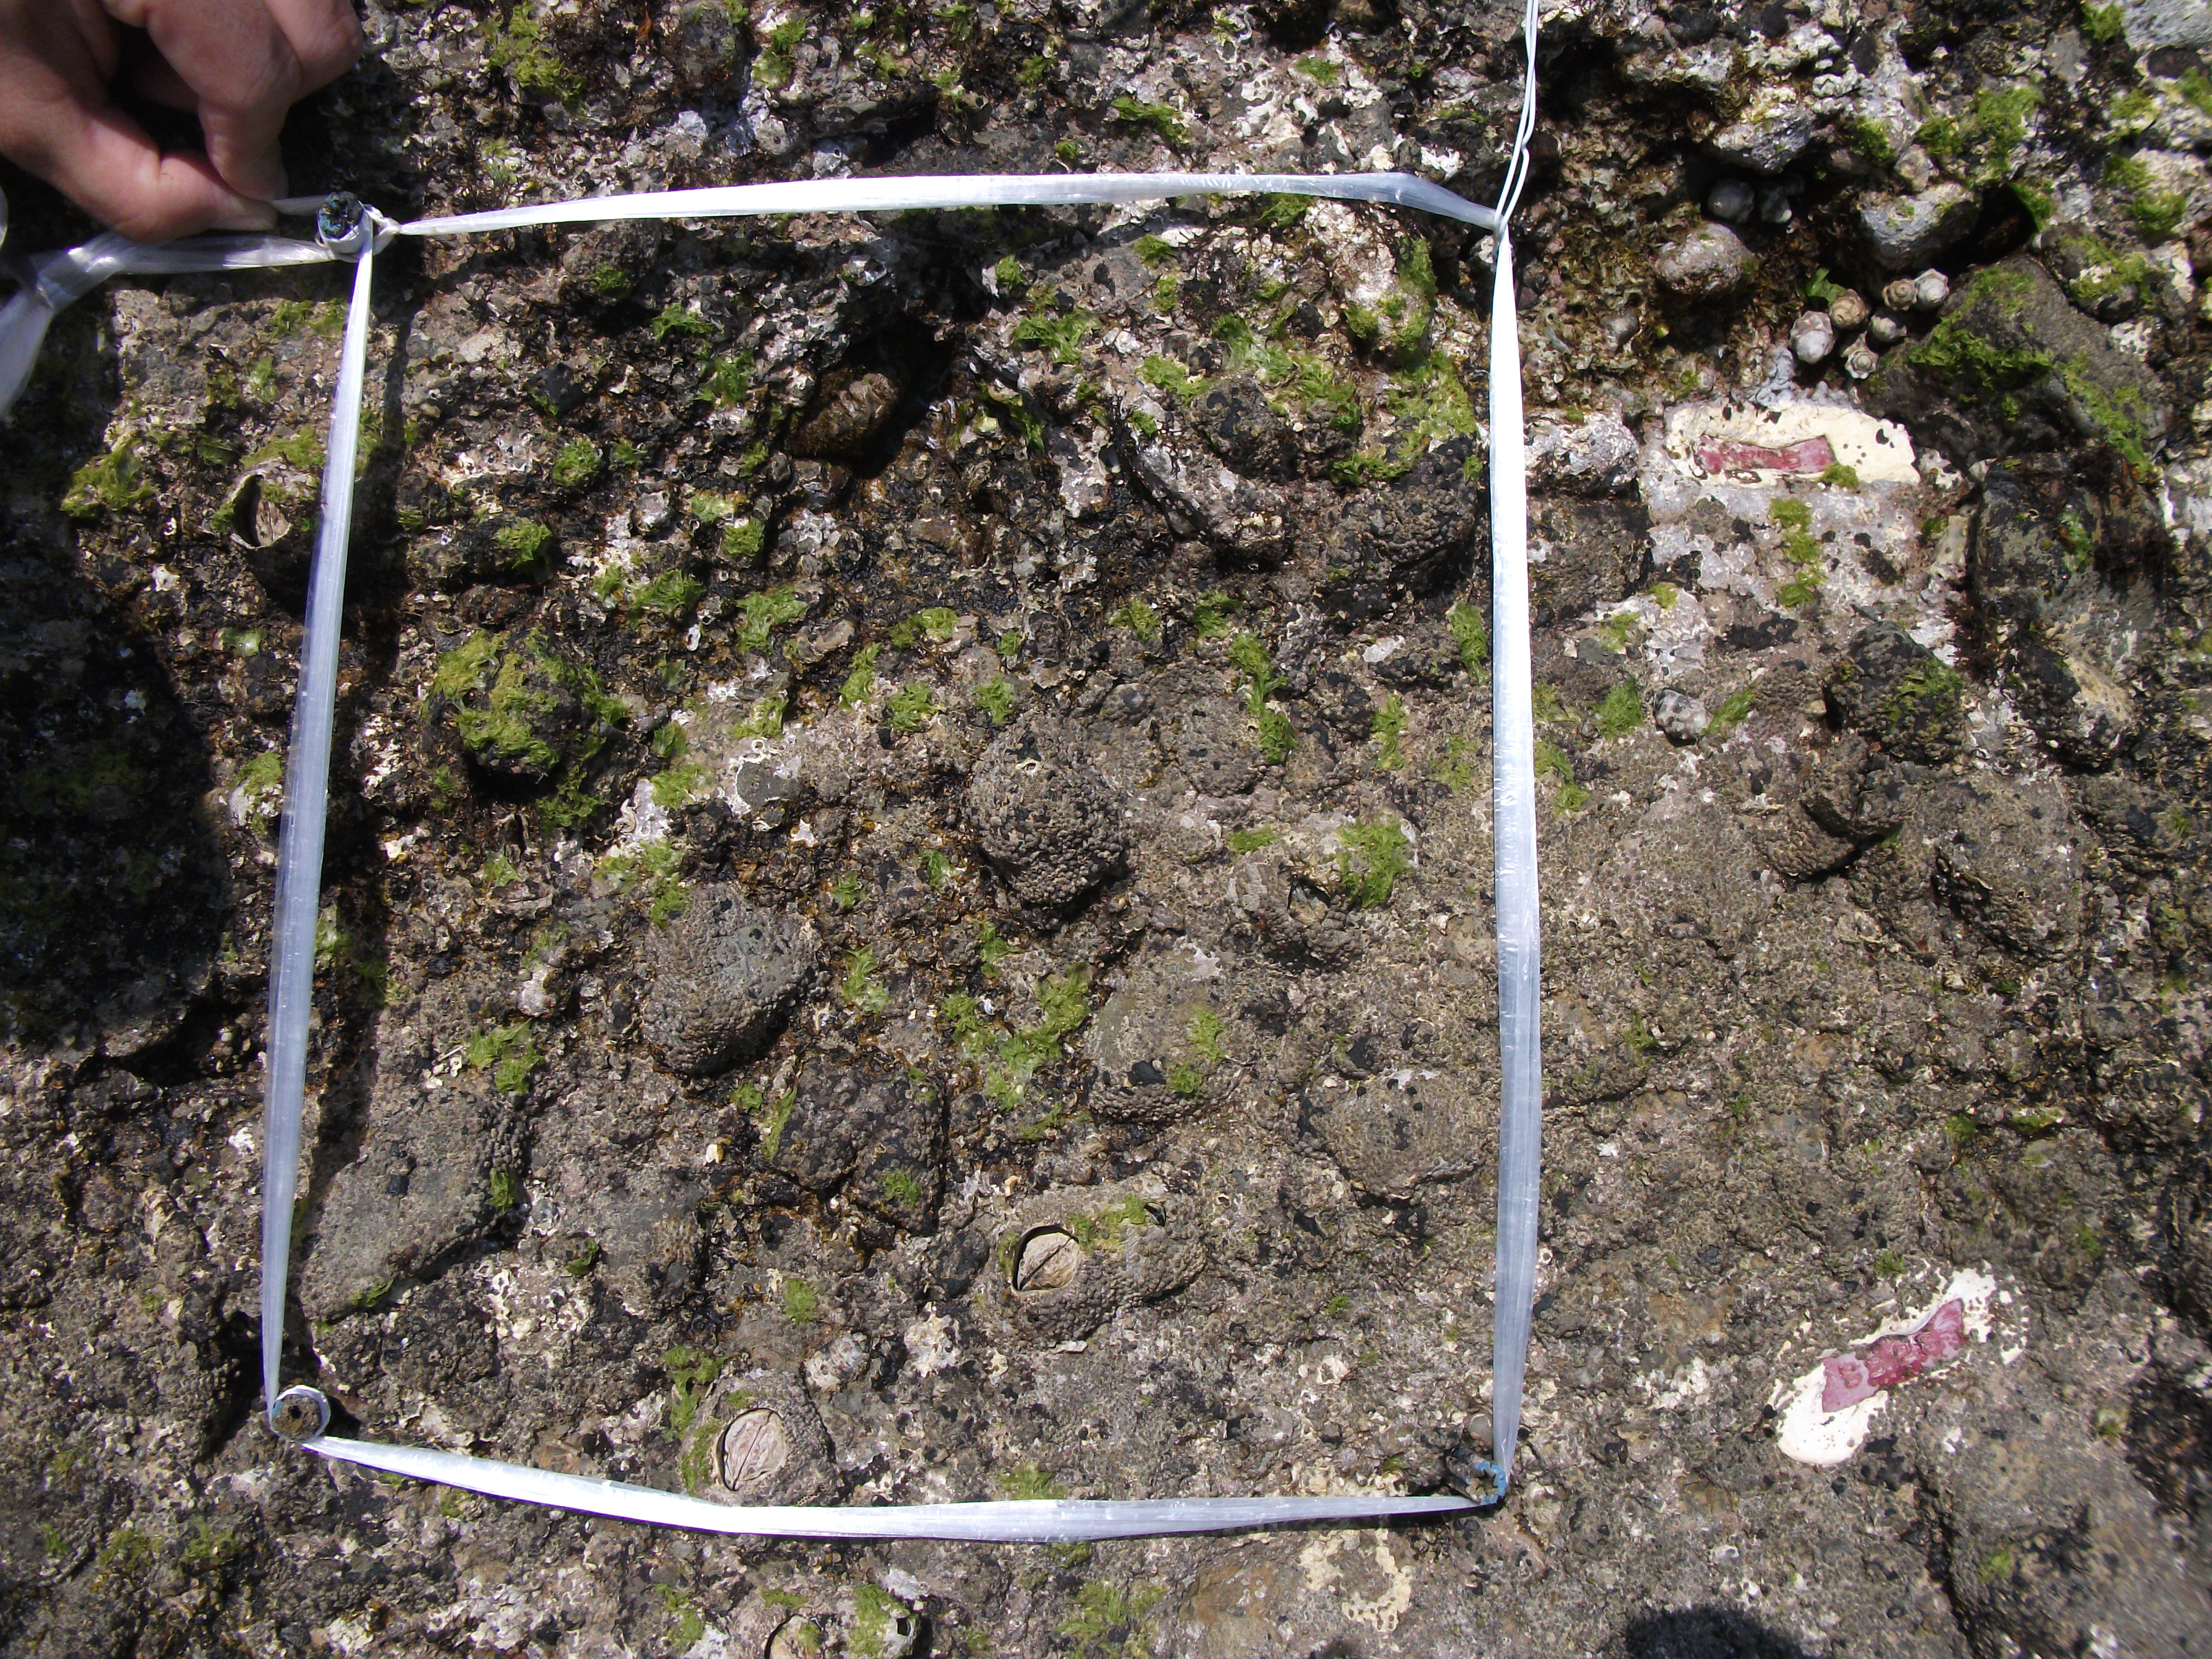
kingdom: Animalia
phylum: Arthropoda
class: Maxillopoda
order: Sessilia
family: Chthamalidae
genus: Chthamalus
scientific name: Chthamalus challengeri
